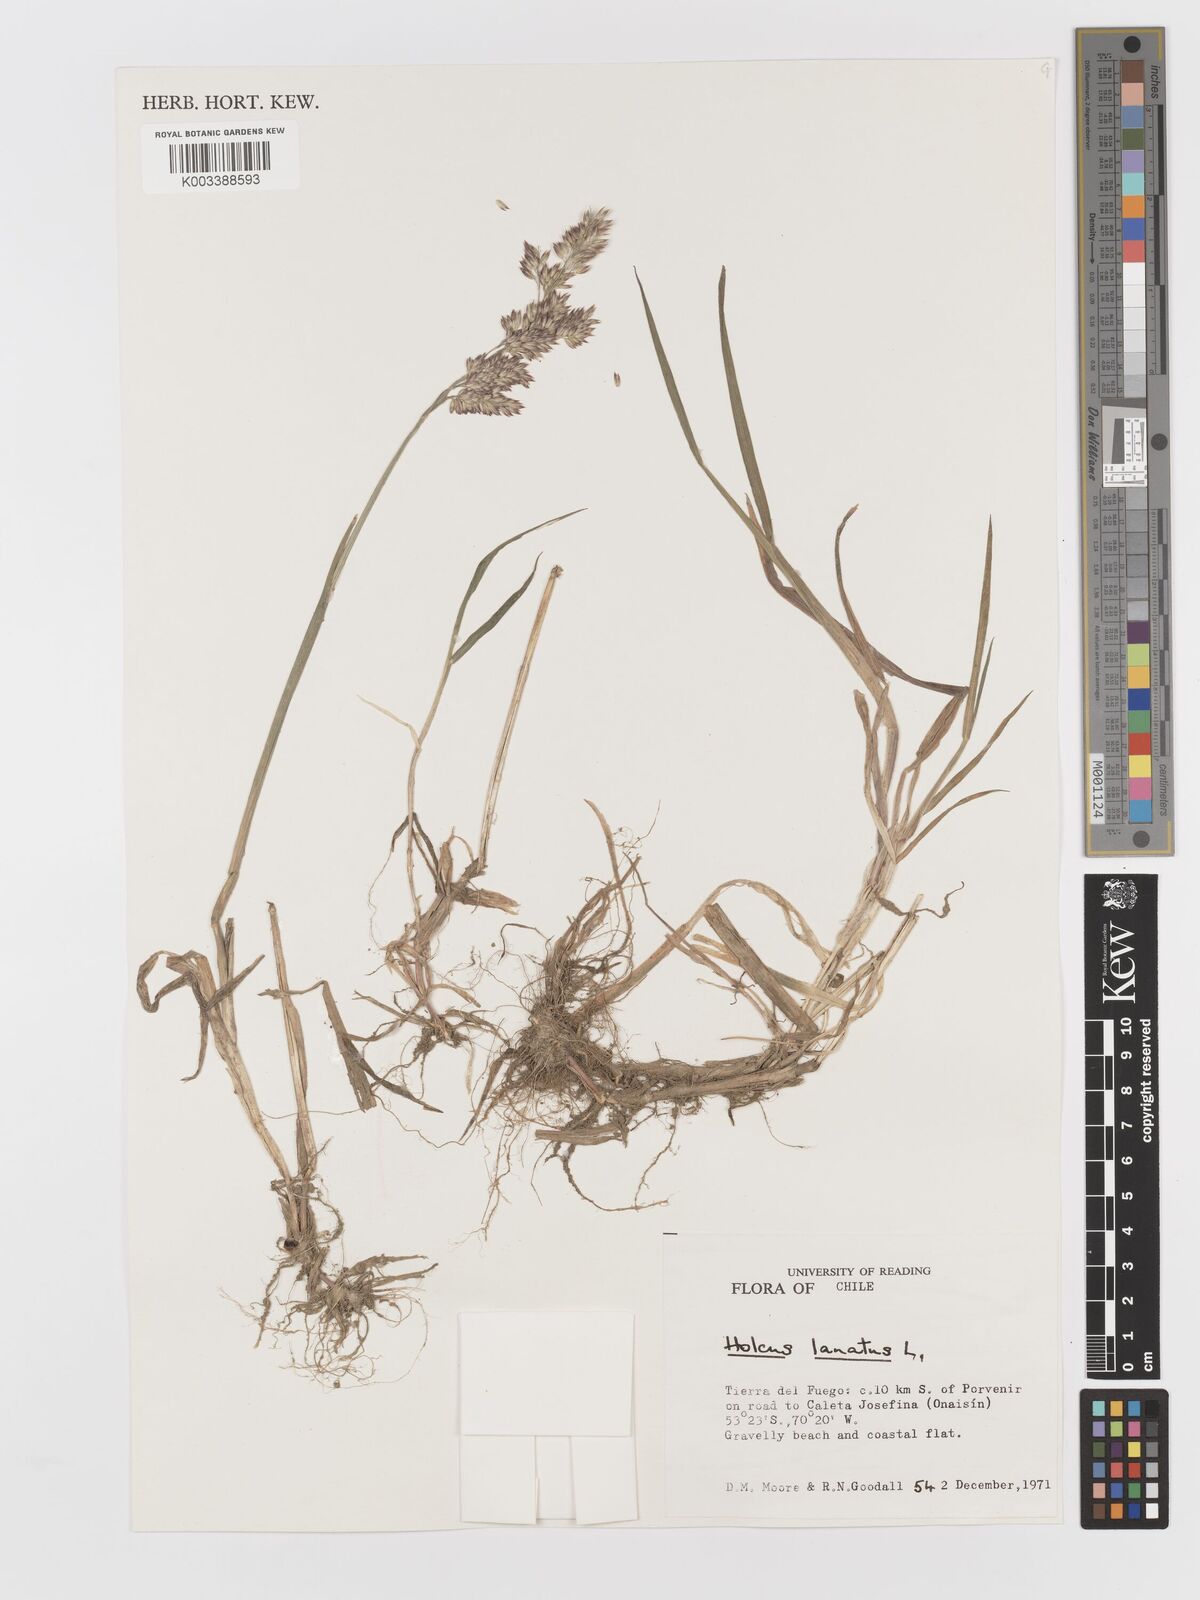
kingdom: Plantae
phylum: Tracheophyta
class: Liliopsida
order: Poales
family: Poaceae
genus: Holcus
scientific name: Holcus lanatus
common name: Yorkshire-fog
